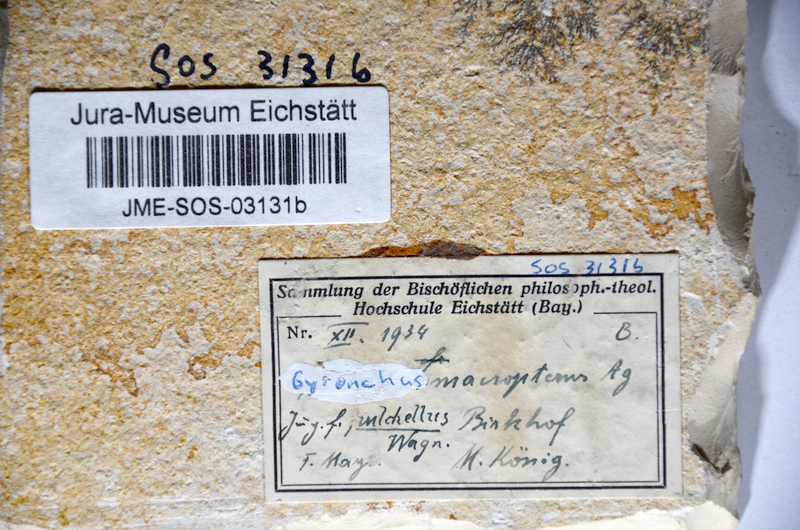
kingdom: Animalia
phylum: Chordata
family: Pycnodontidae
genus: Turbomesodon
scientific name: Turbomesodon relegans
